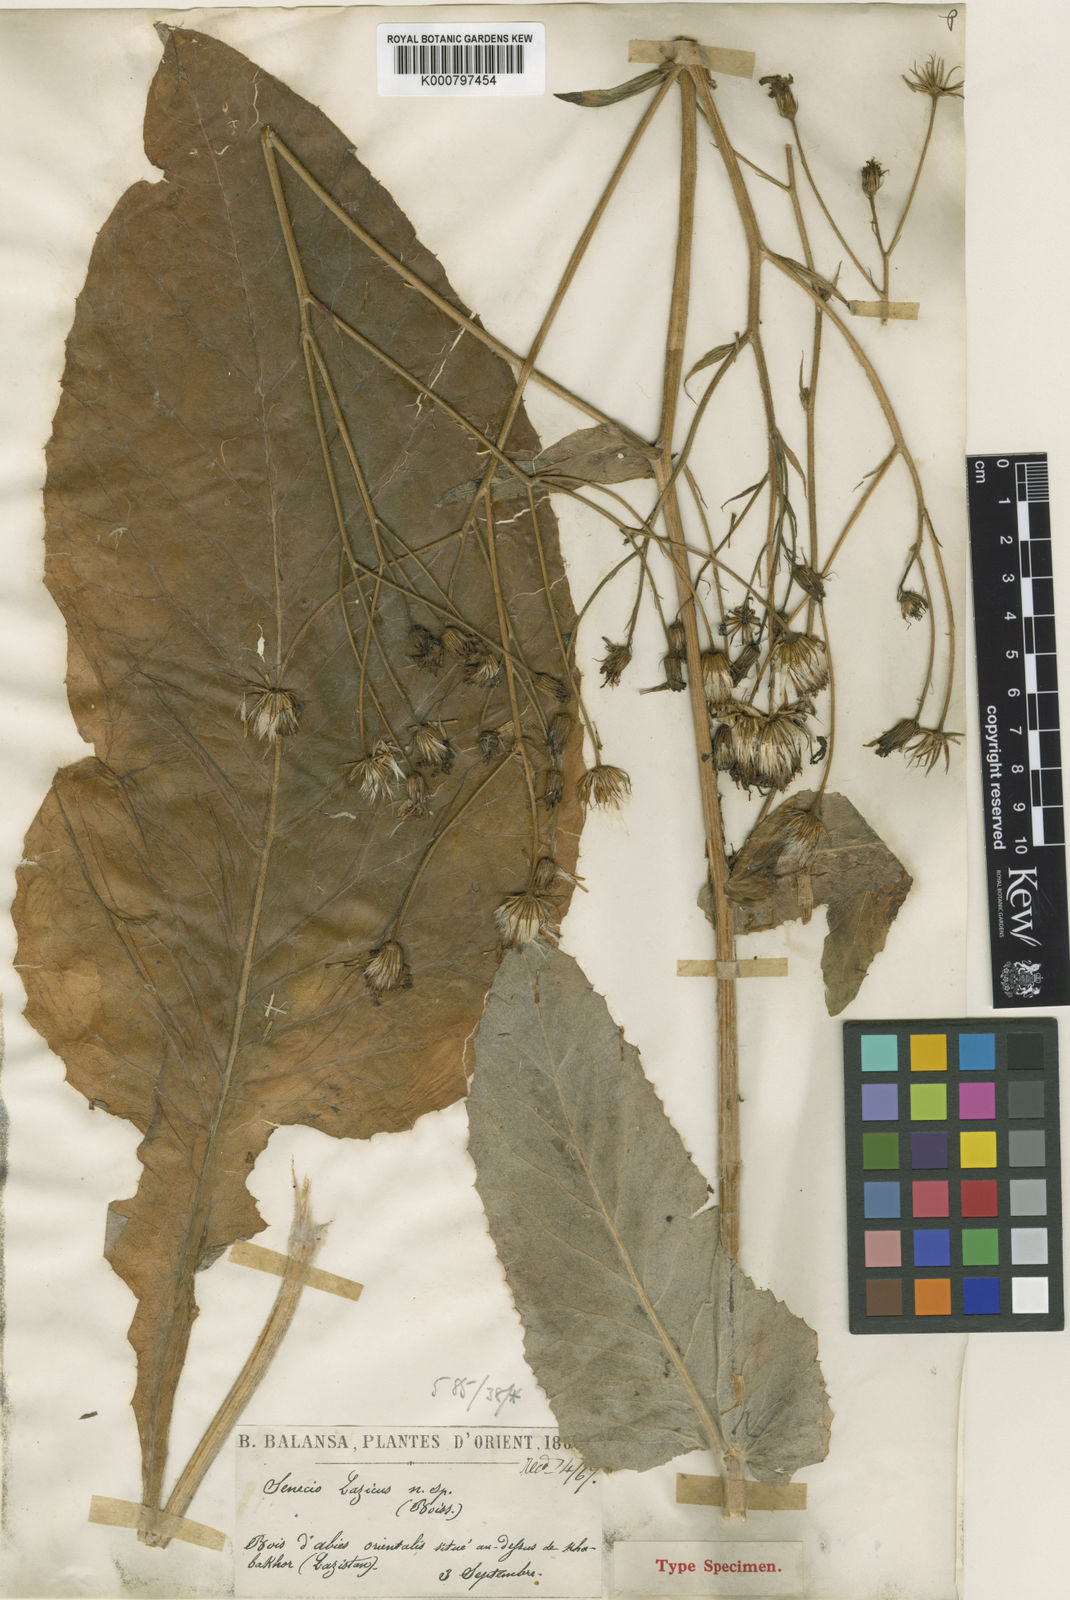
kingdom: Plantae
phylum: Tracheophyta
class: Magnoliopsida
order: Asterales
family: Asteraceae
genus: Turanecio
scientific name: Turanecio lazicus
